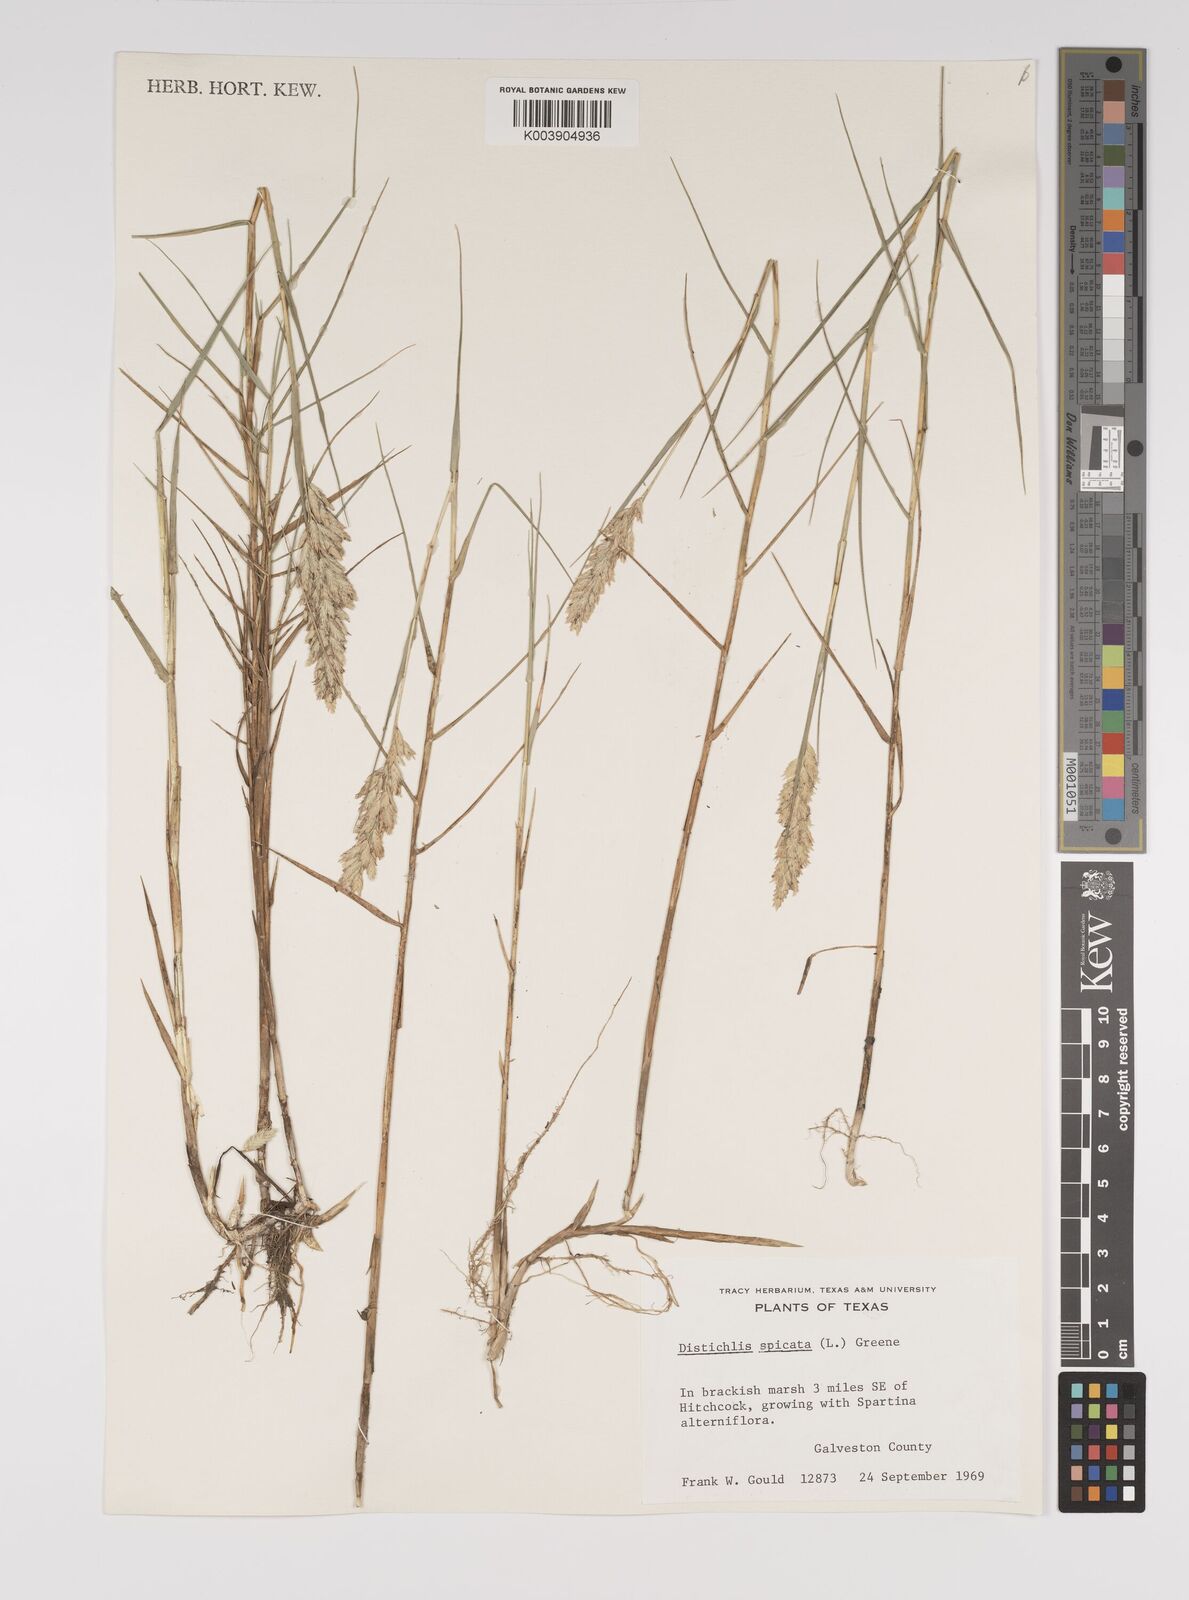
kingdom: Plantae
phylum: Tracheophyta
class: Liliopsida
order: Poales
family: Poaceae
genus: Distichlis
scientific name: Distichlis spicata
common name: Saltgrass
